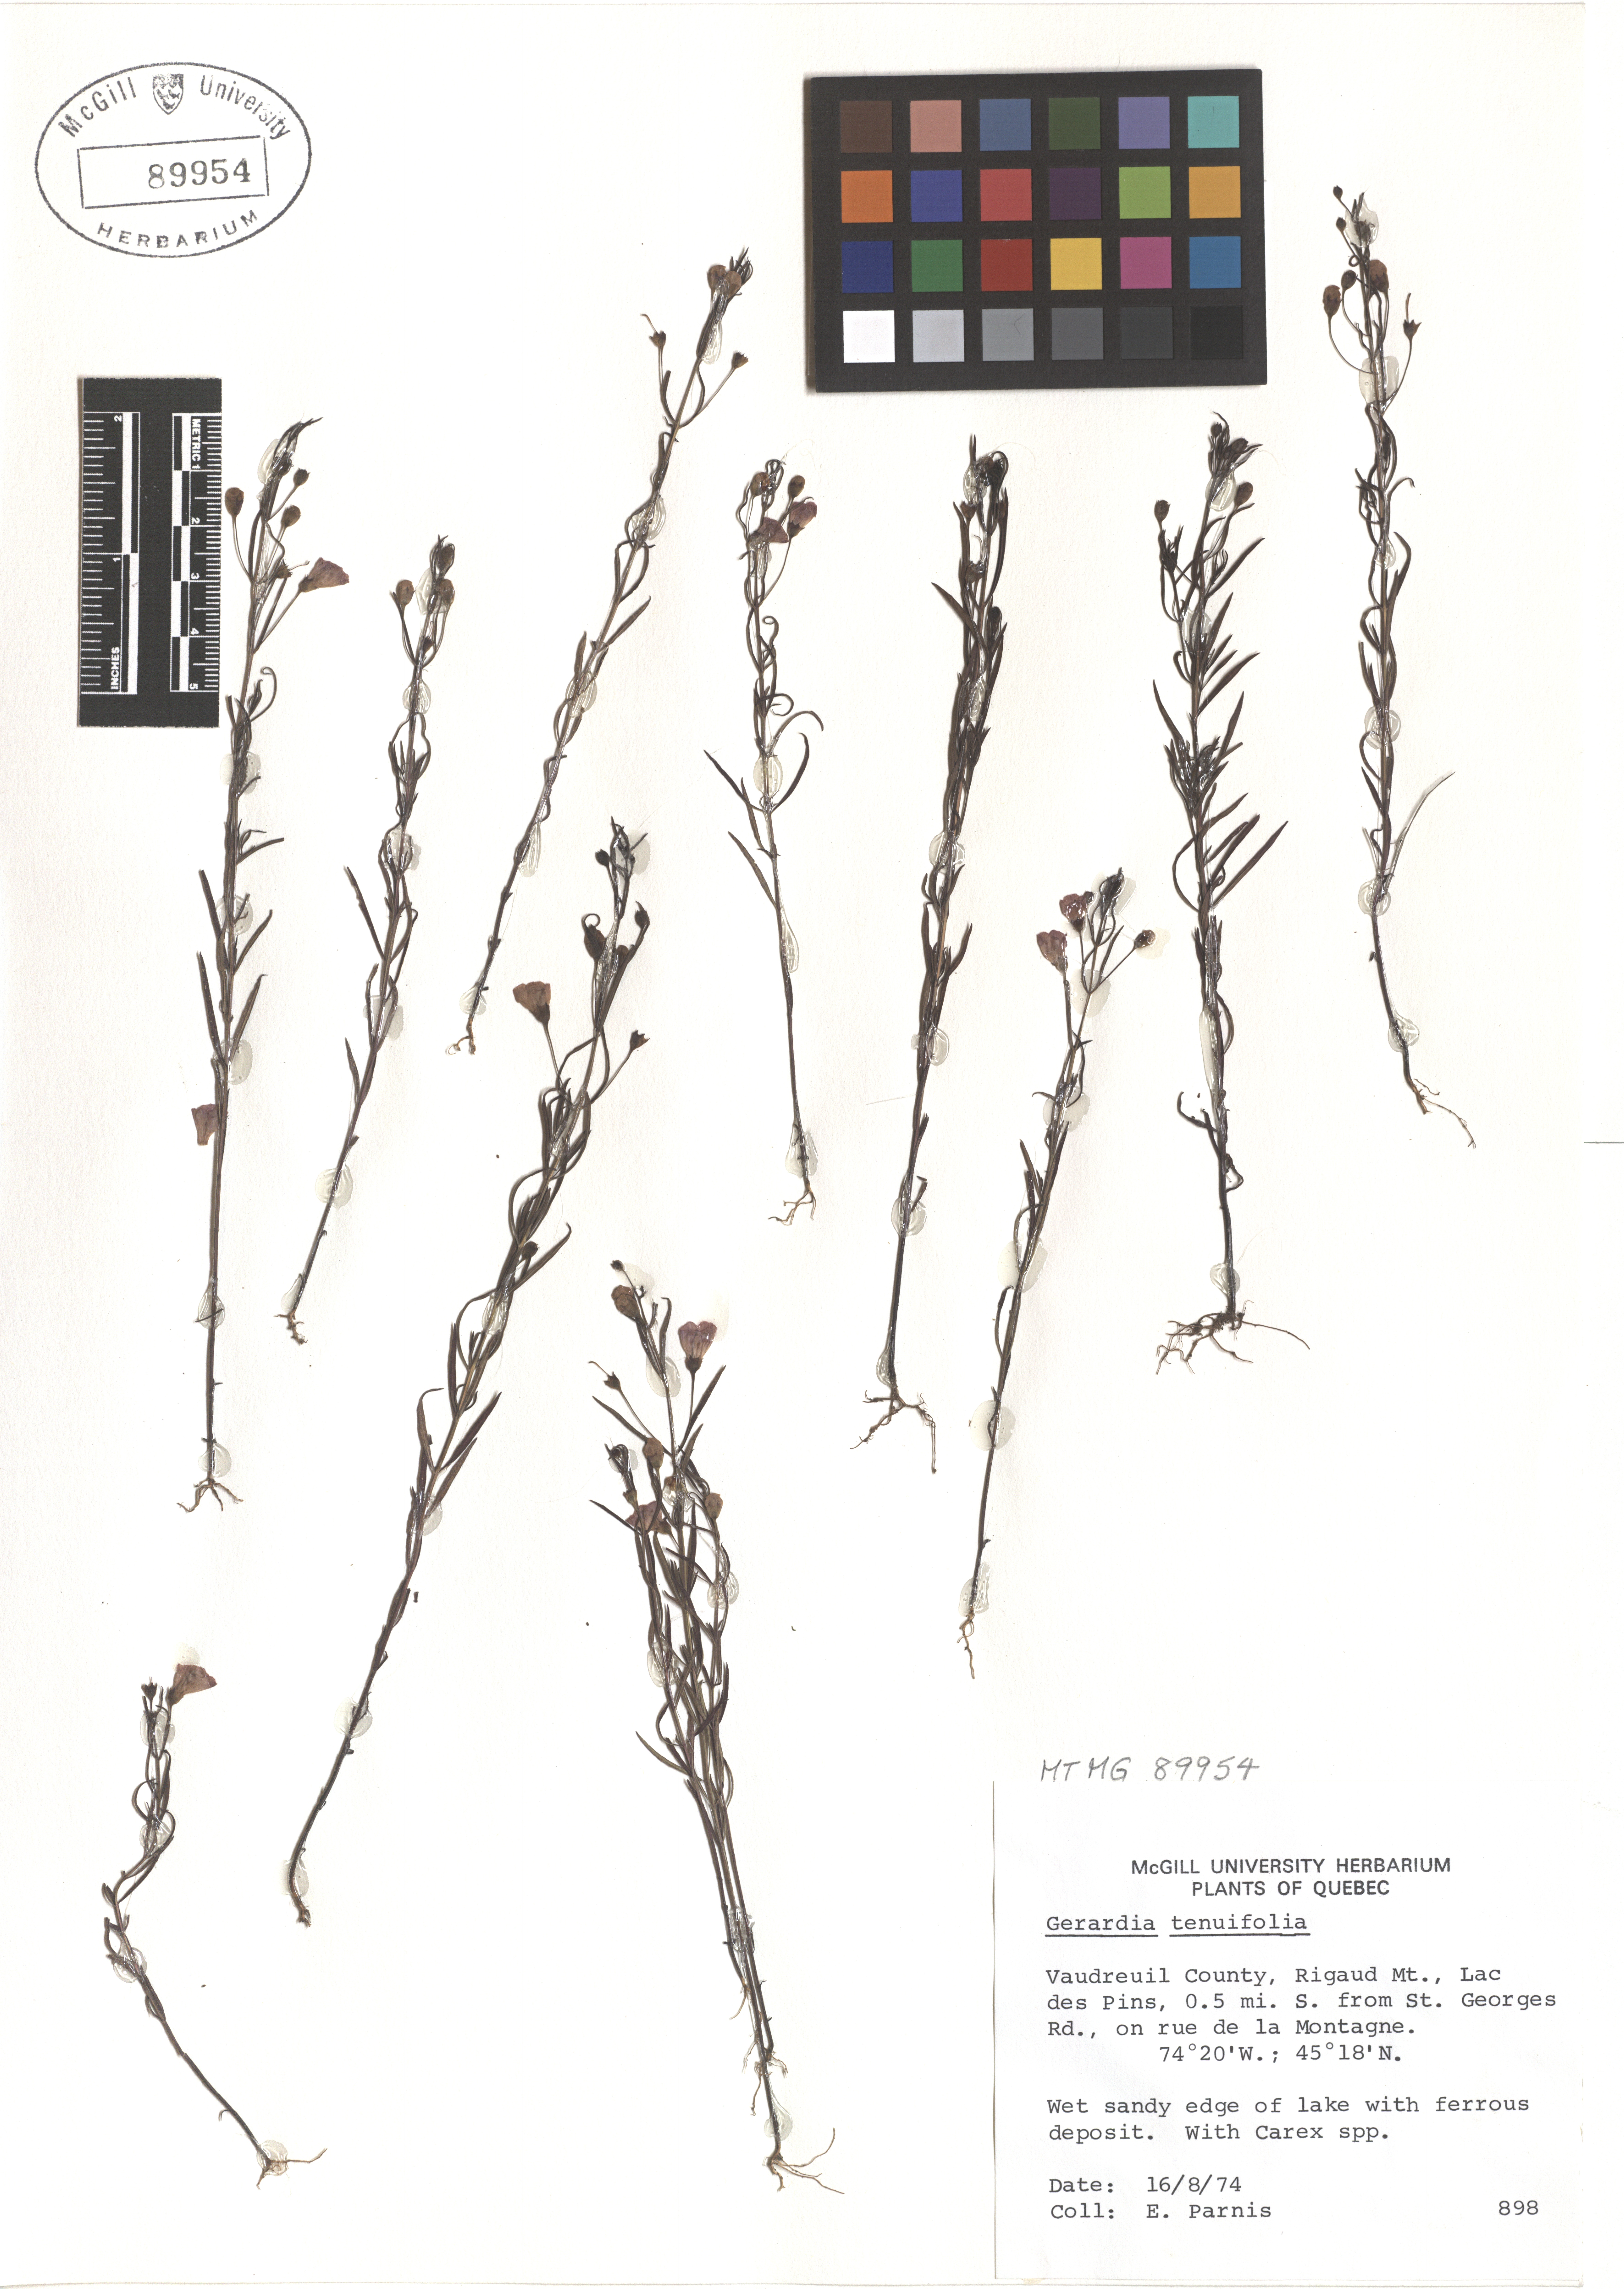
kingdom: Plantae
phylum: Tracheophyta
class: Magnoliopsida
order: Lamiales
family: Orobanchaceae
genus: Agalinis
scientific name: Agalinis tenuifolia
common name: Slender agalinis
